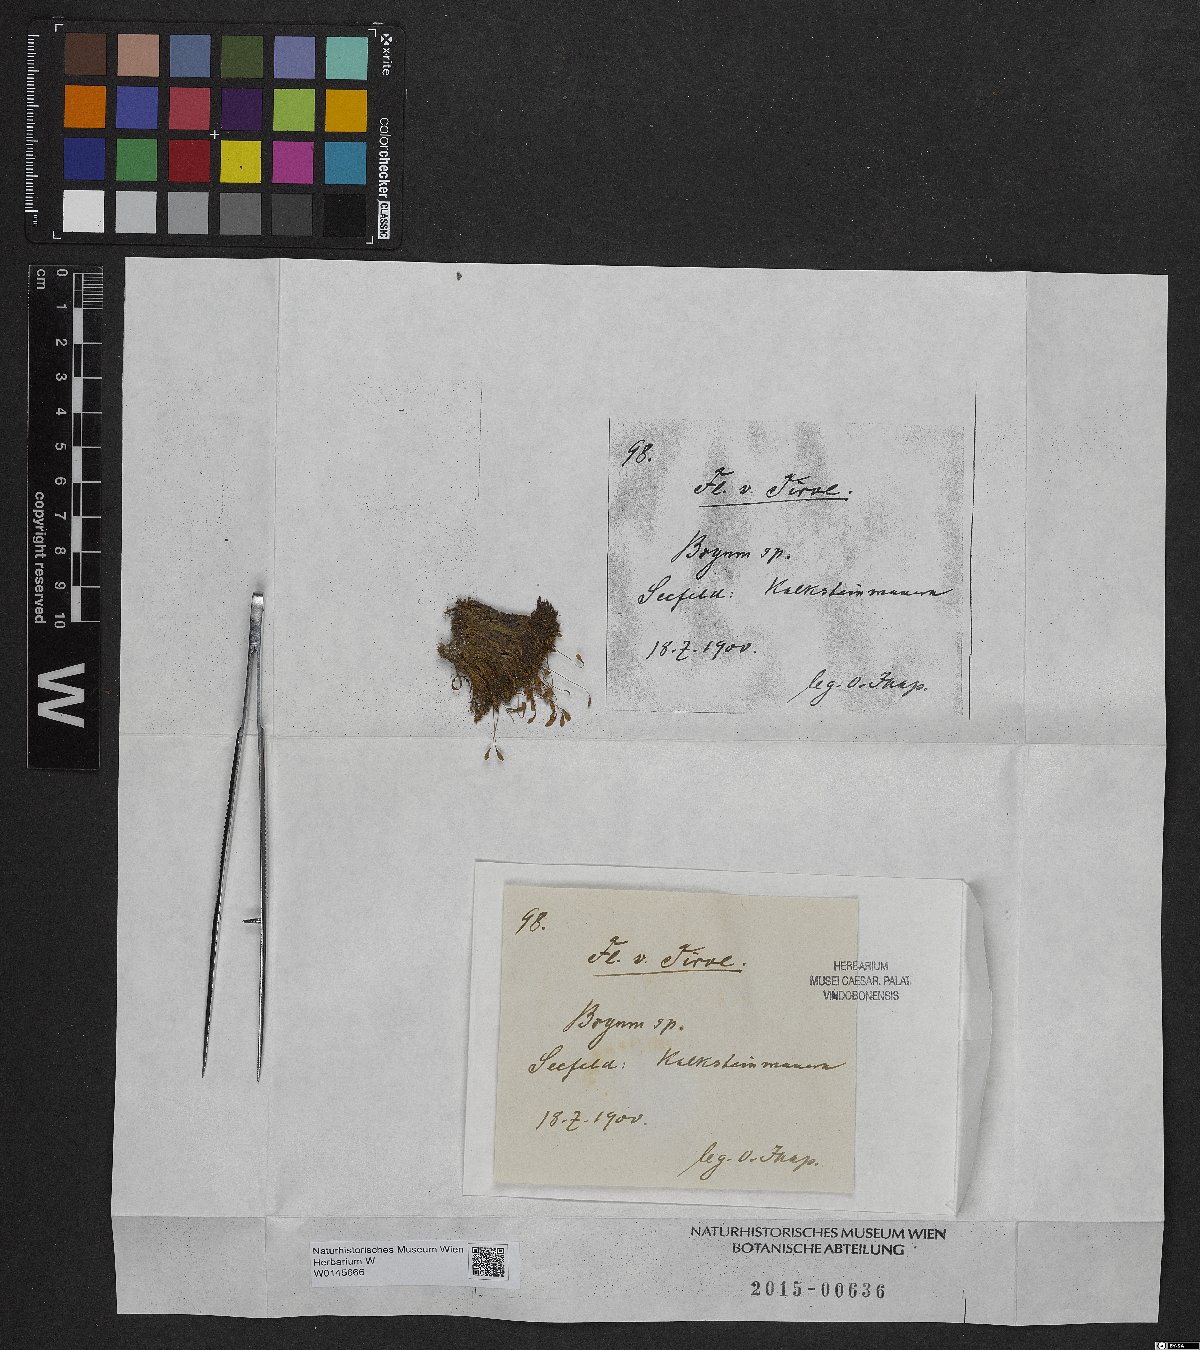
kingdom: Plantae
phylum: Bryophyta
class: Bryopsida
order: Bryales
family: Bryaceae
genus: Bryum
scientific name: Bryum
